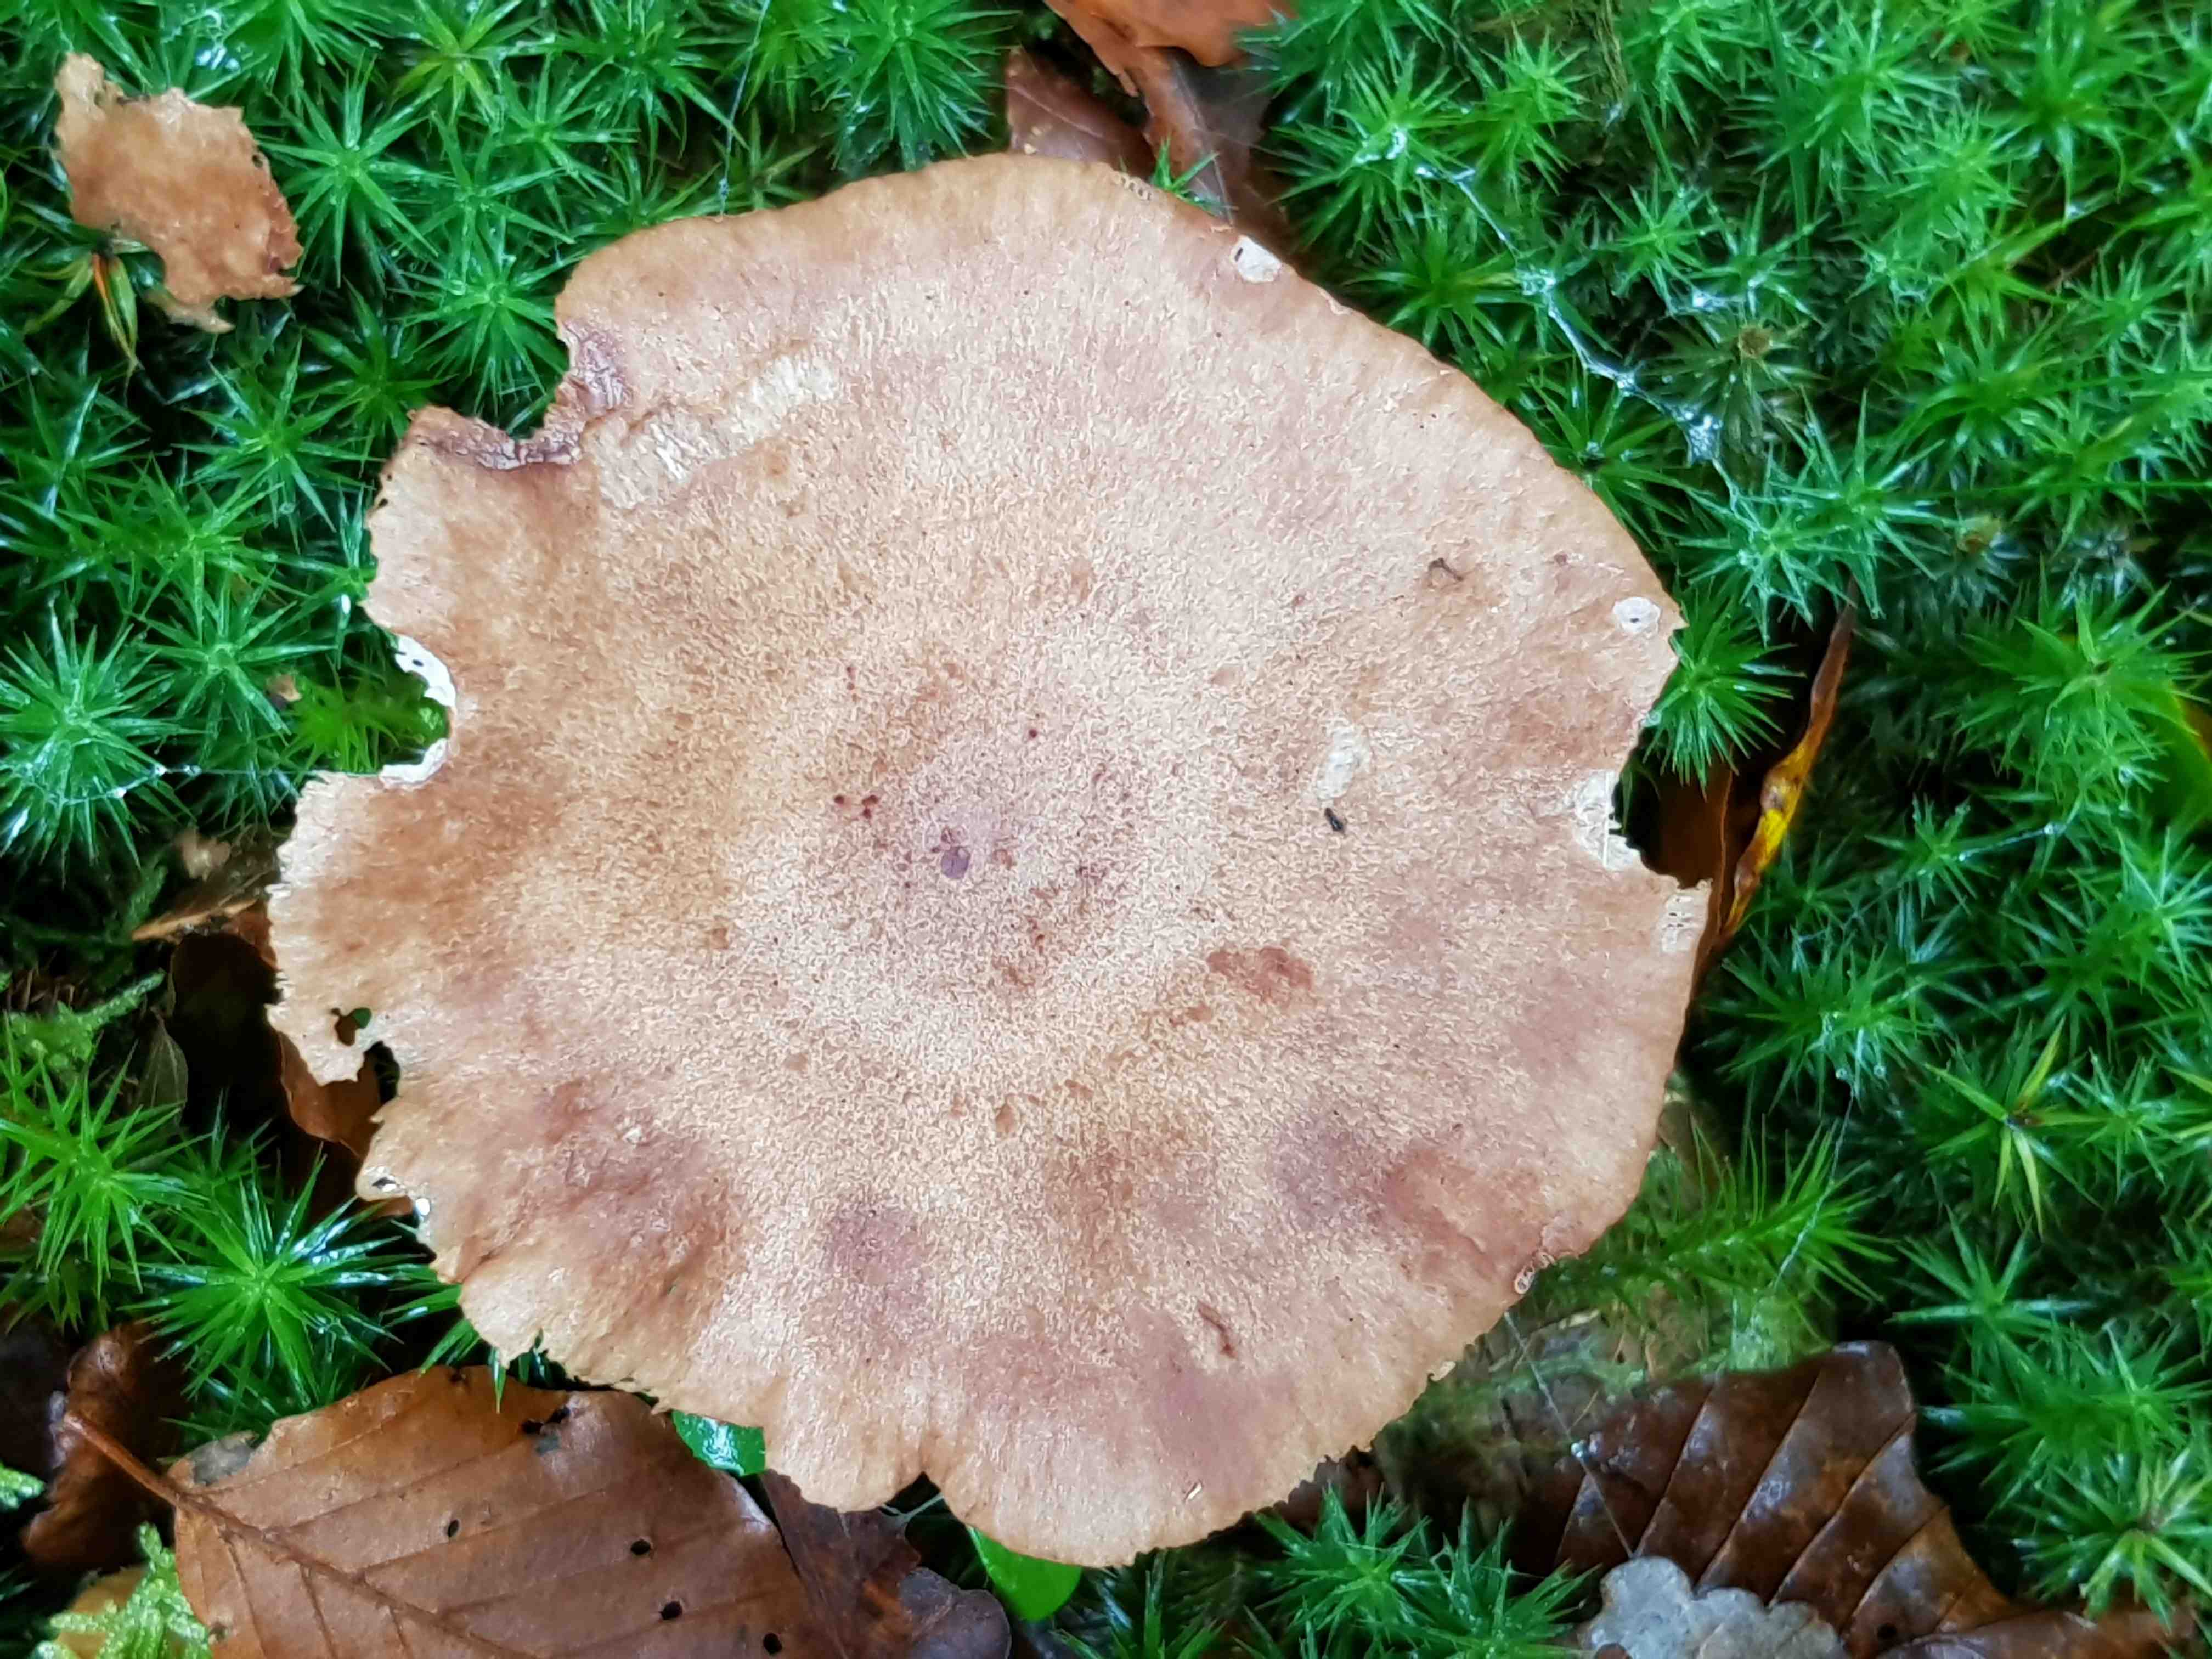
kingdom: Fungi
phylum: Basidiomycota
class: Agaricomycetes
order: Russulales
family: Russulaceae
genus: Lactarius
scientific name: Lactarius quietus
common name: ege-mælkehat
